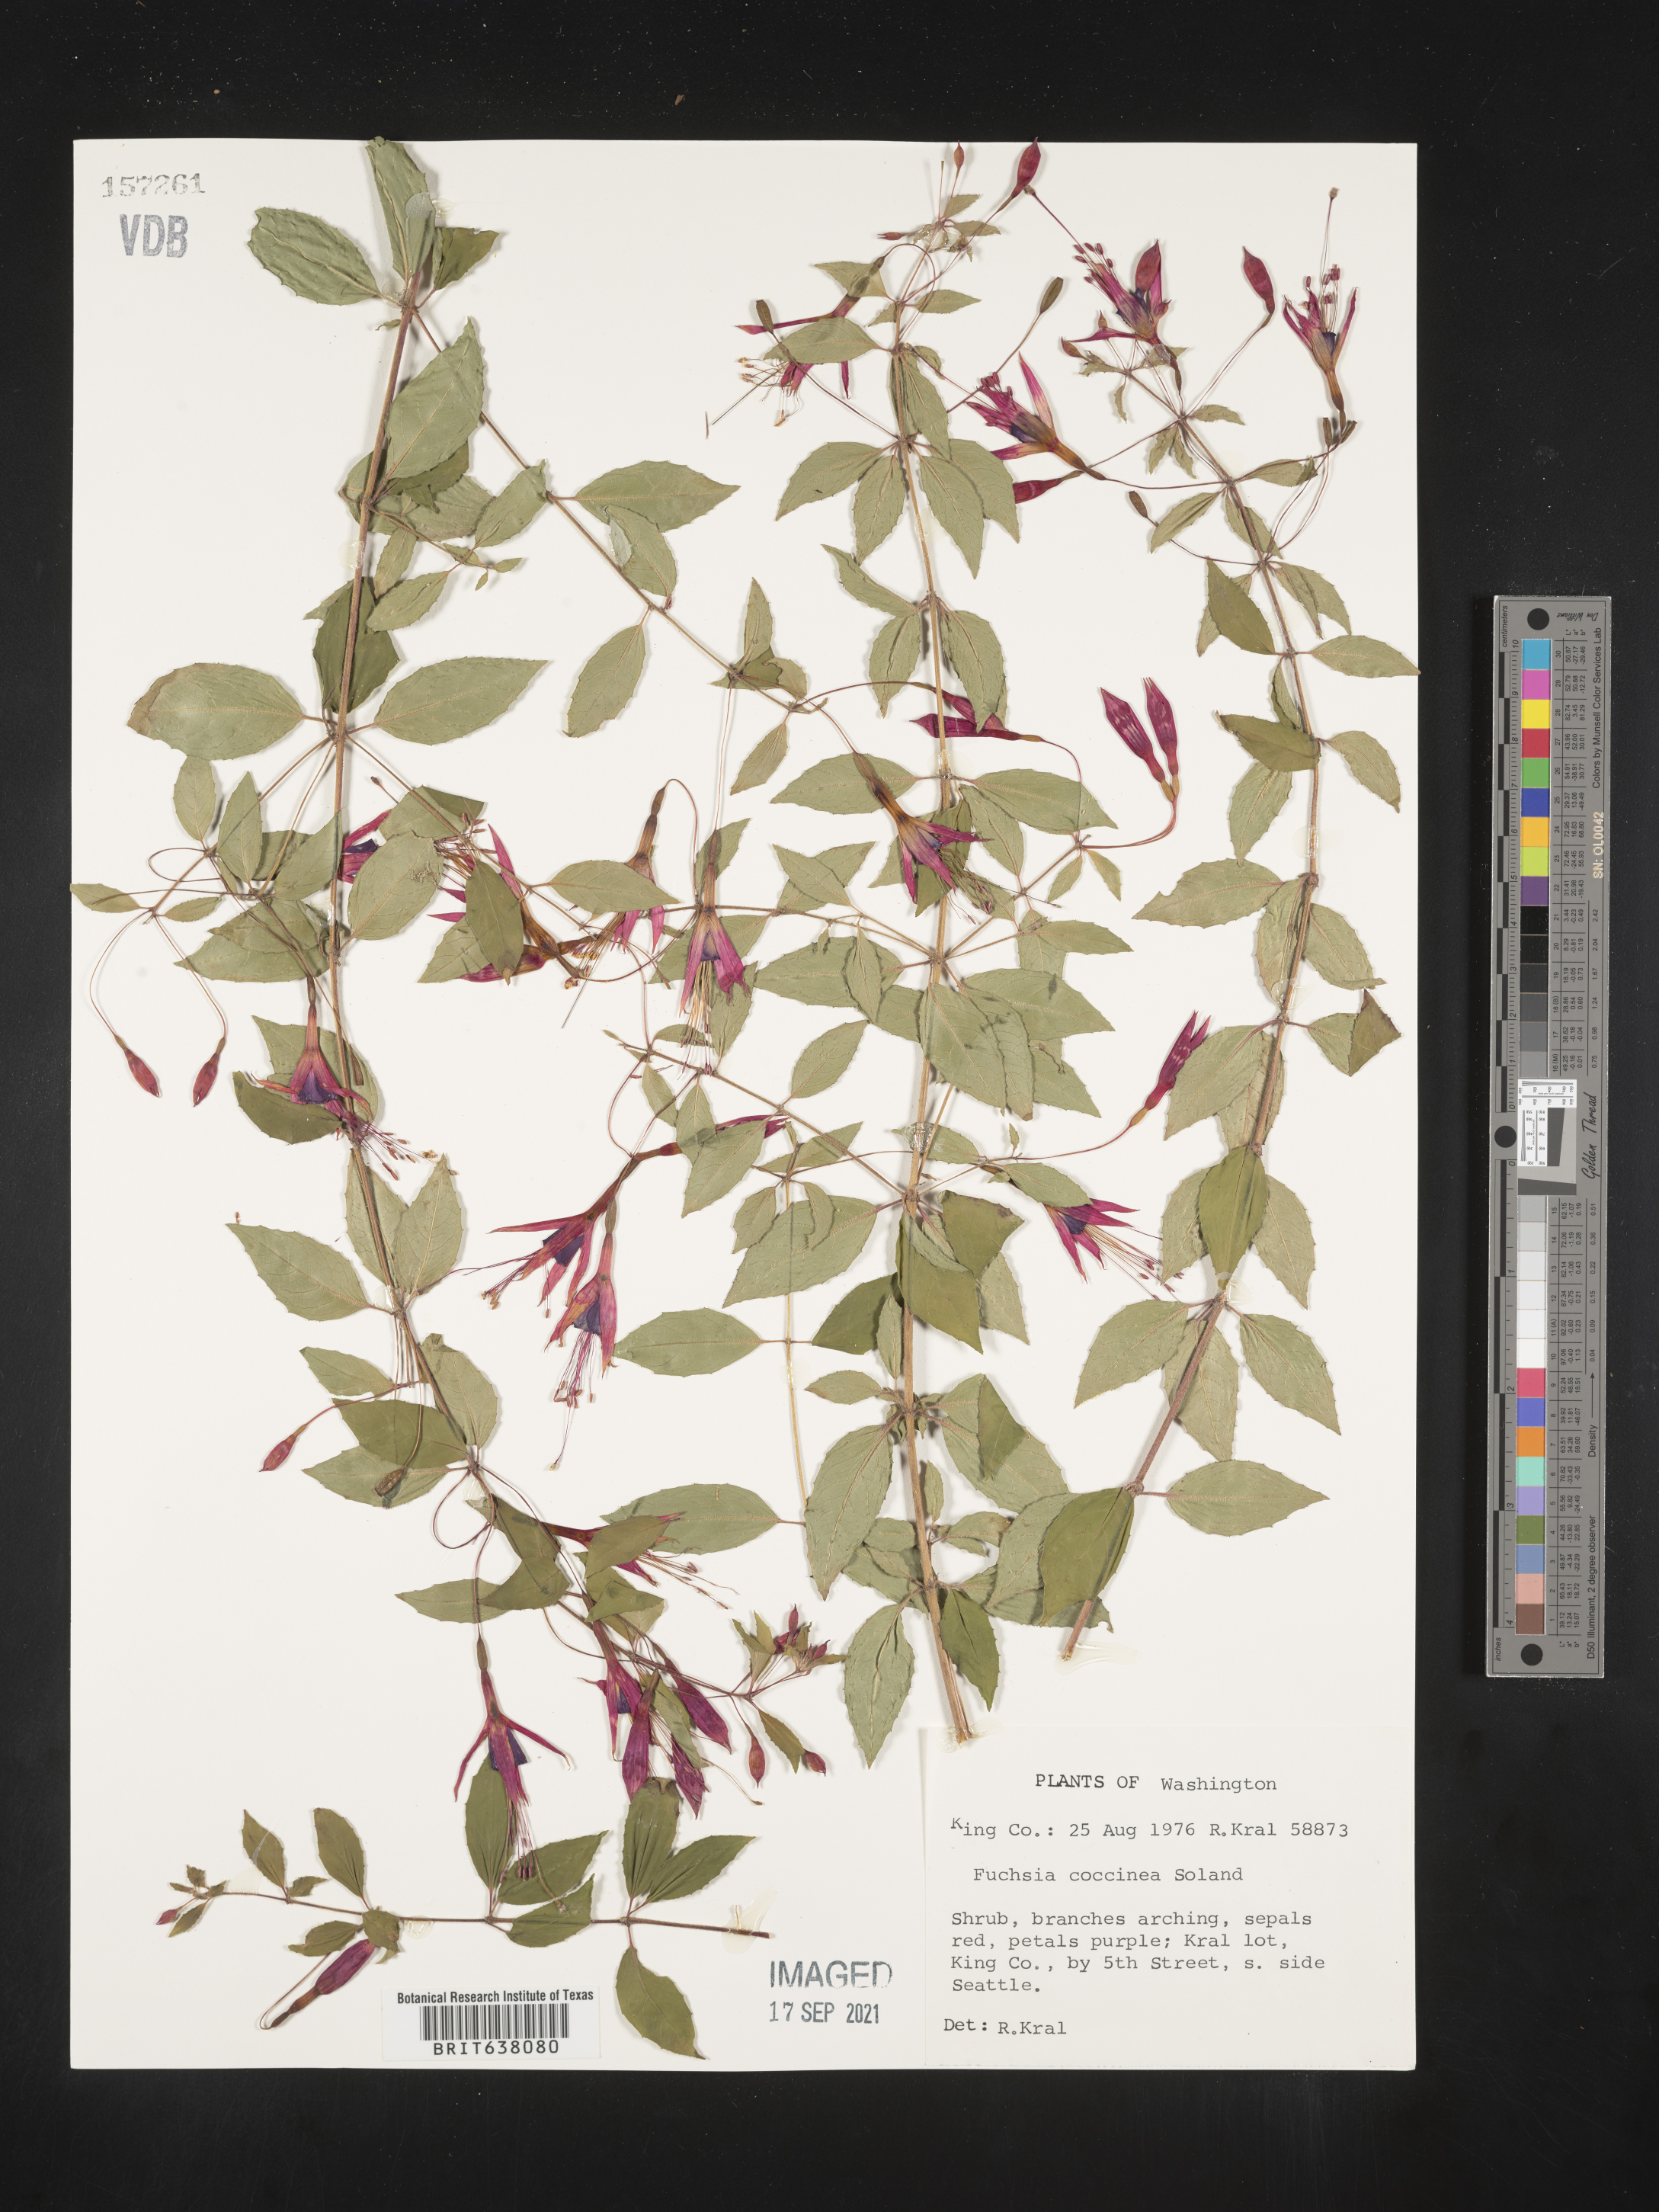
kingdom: Plantae
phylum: Tracheophyta
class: Magnoliopsida
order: Myrtales
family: Onagraceae
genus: Fuchsia
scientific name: Fuchsia
